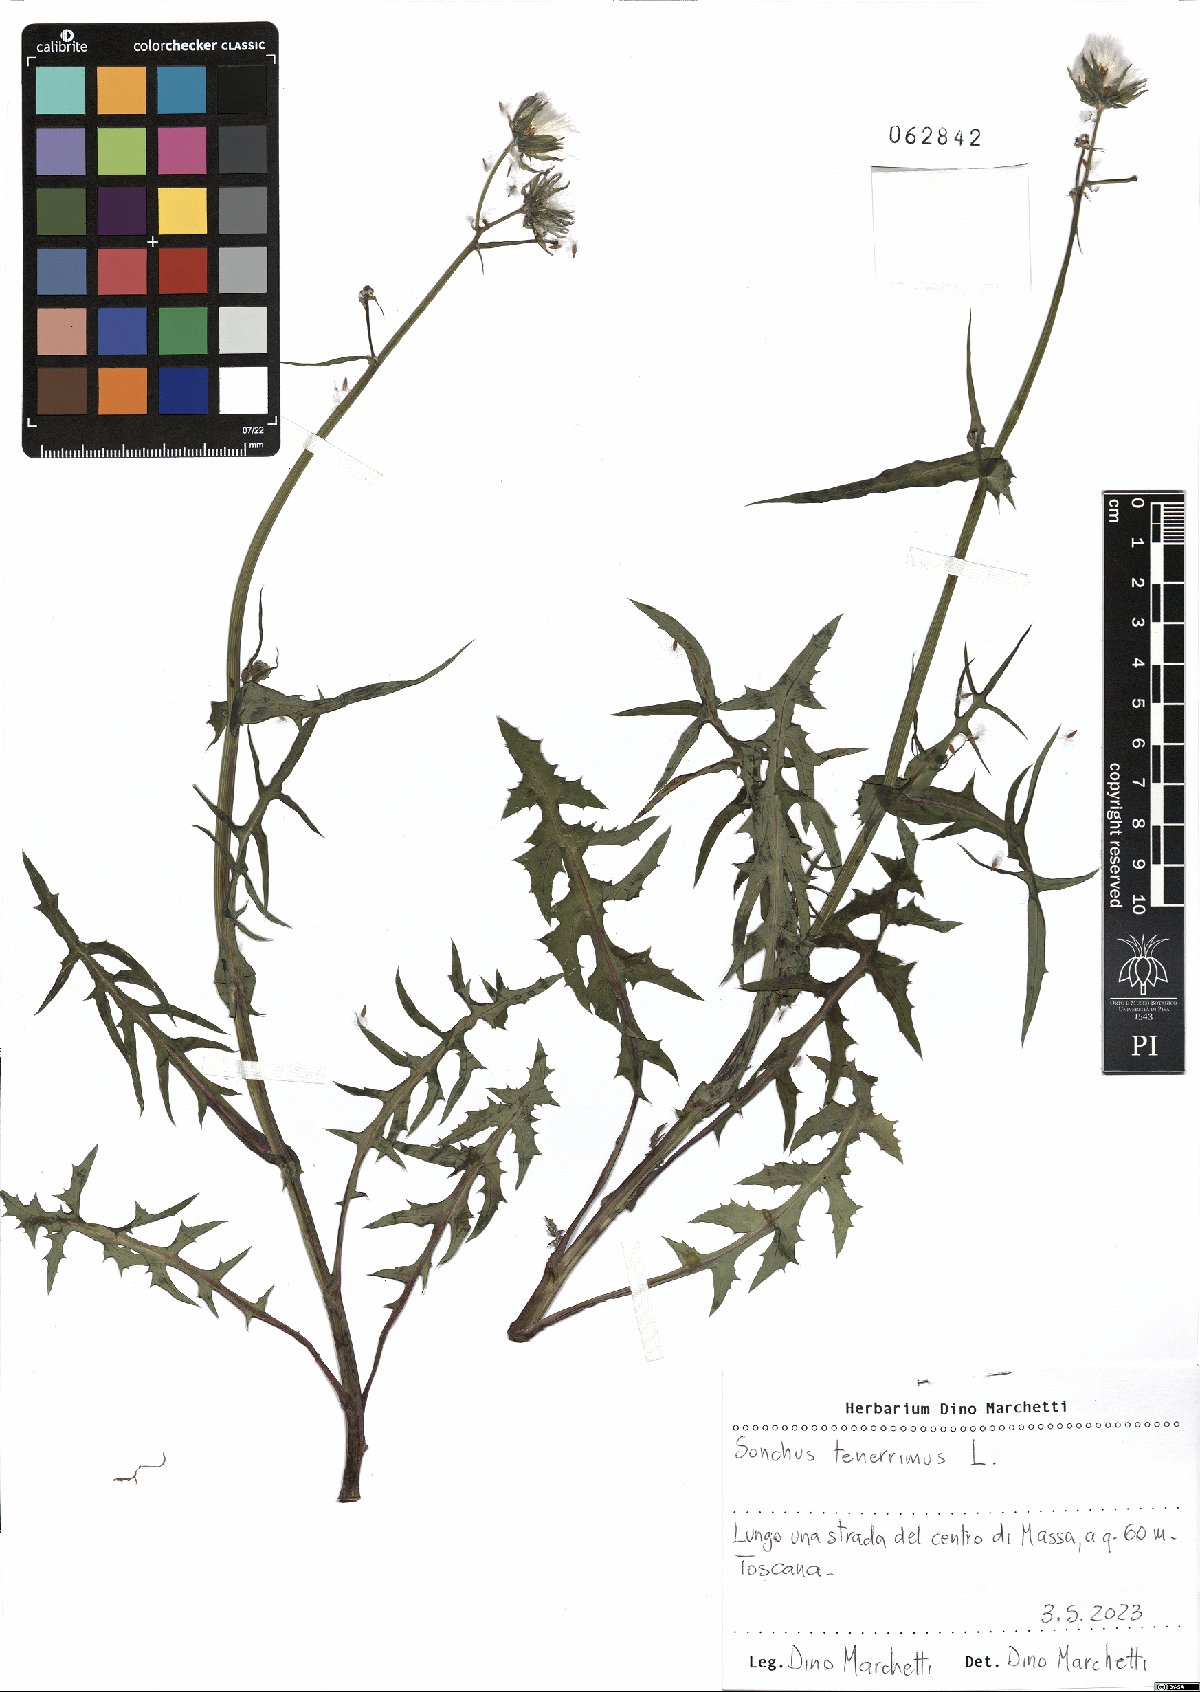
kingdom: Plantae
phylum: Tracheophyta
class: Magnoliopsida
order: Asterales
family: Asteraceae
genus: Sonchus
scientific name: Sonchus tenerrimus
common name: Clammy sowthistle
